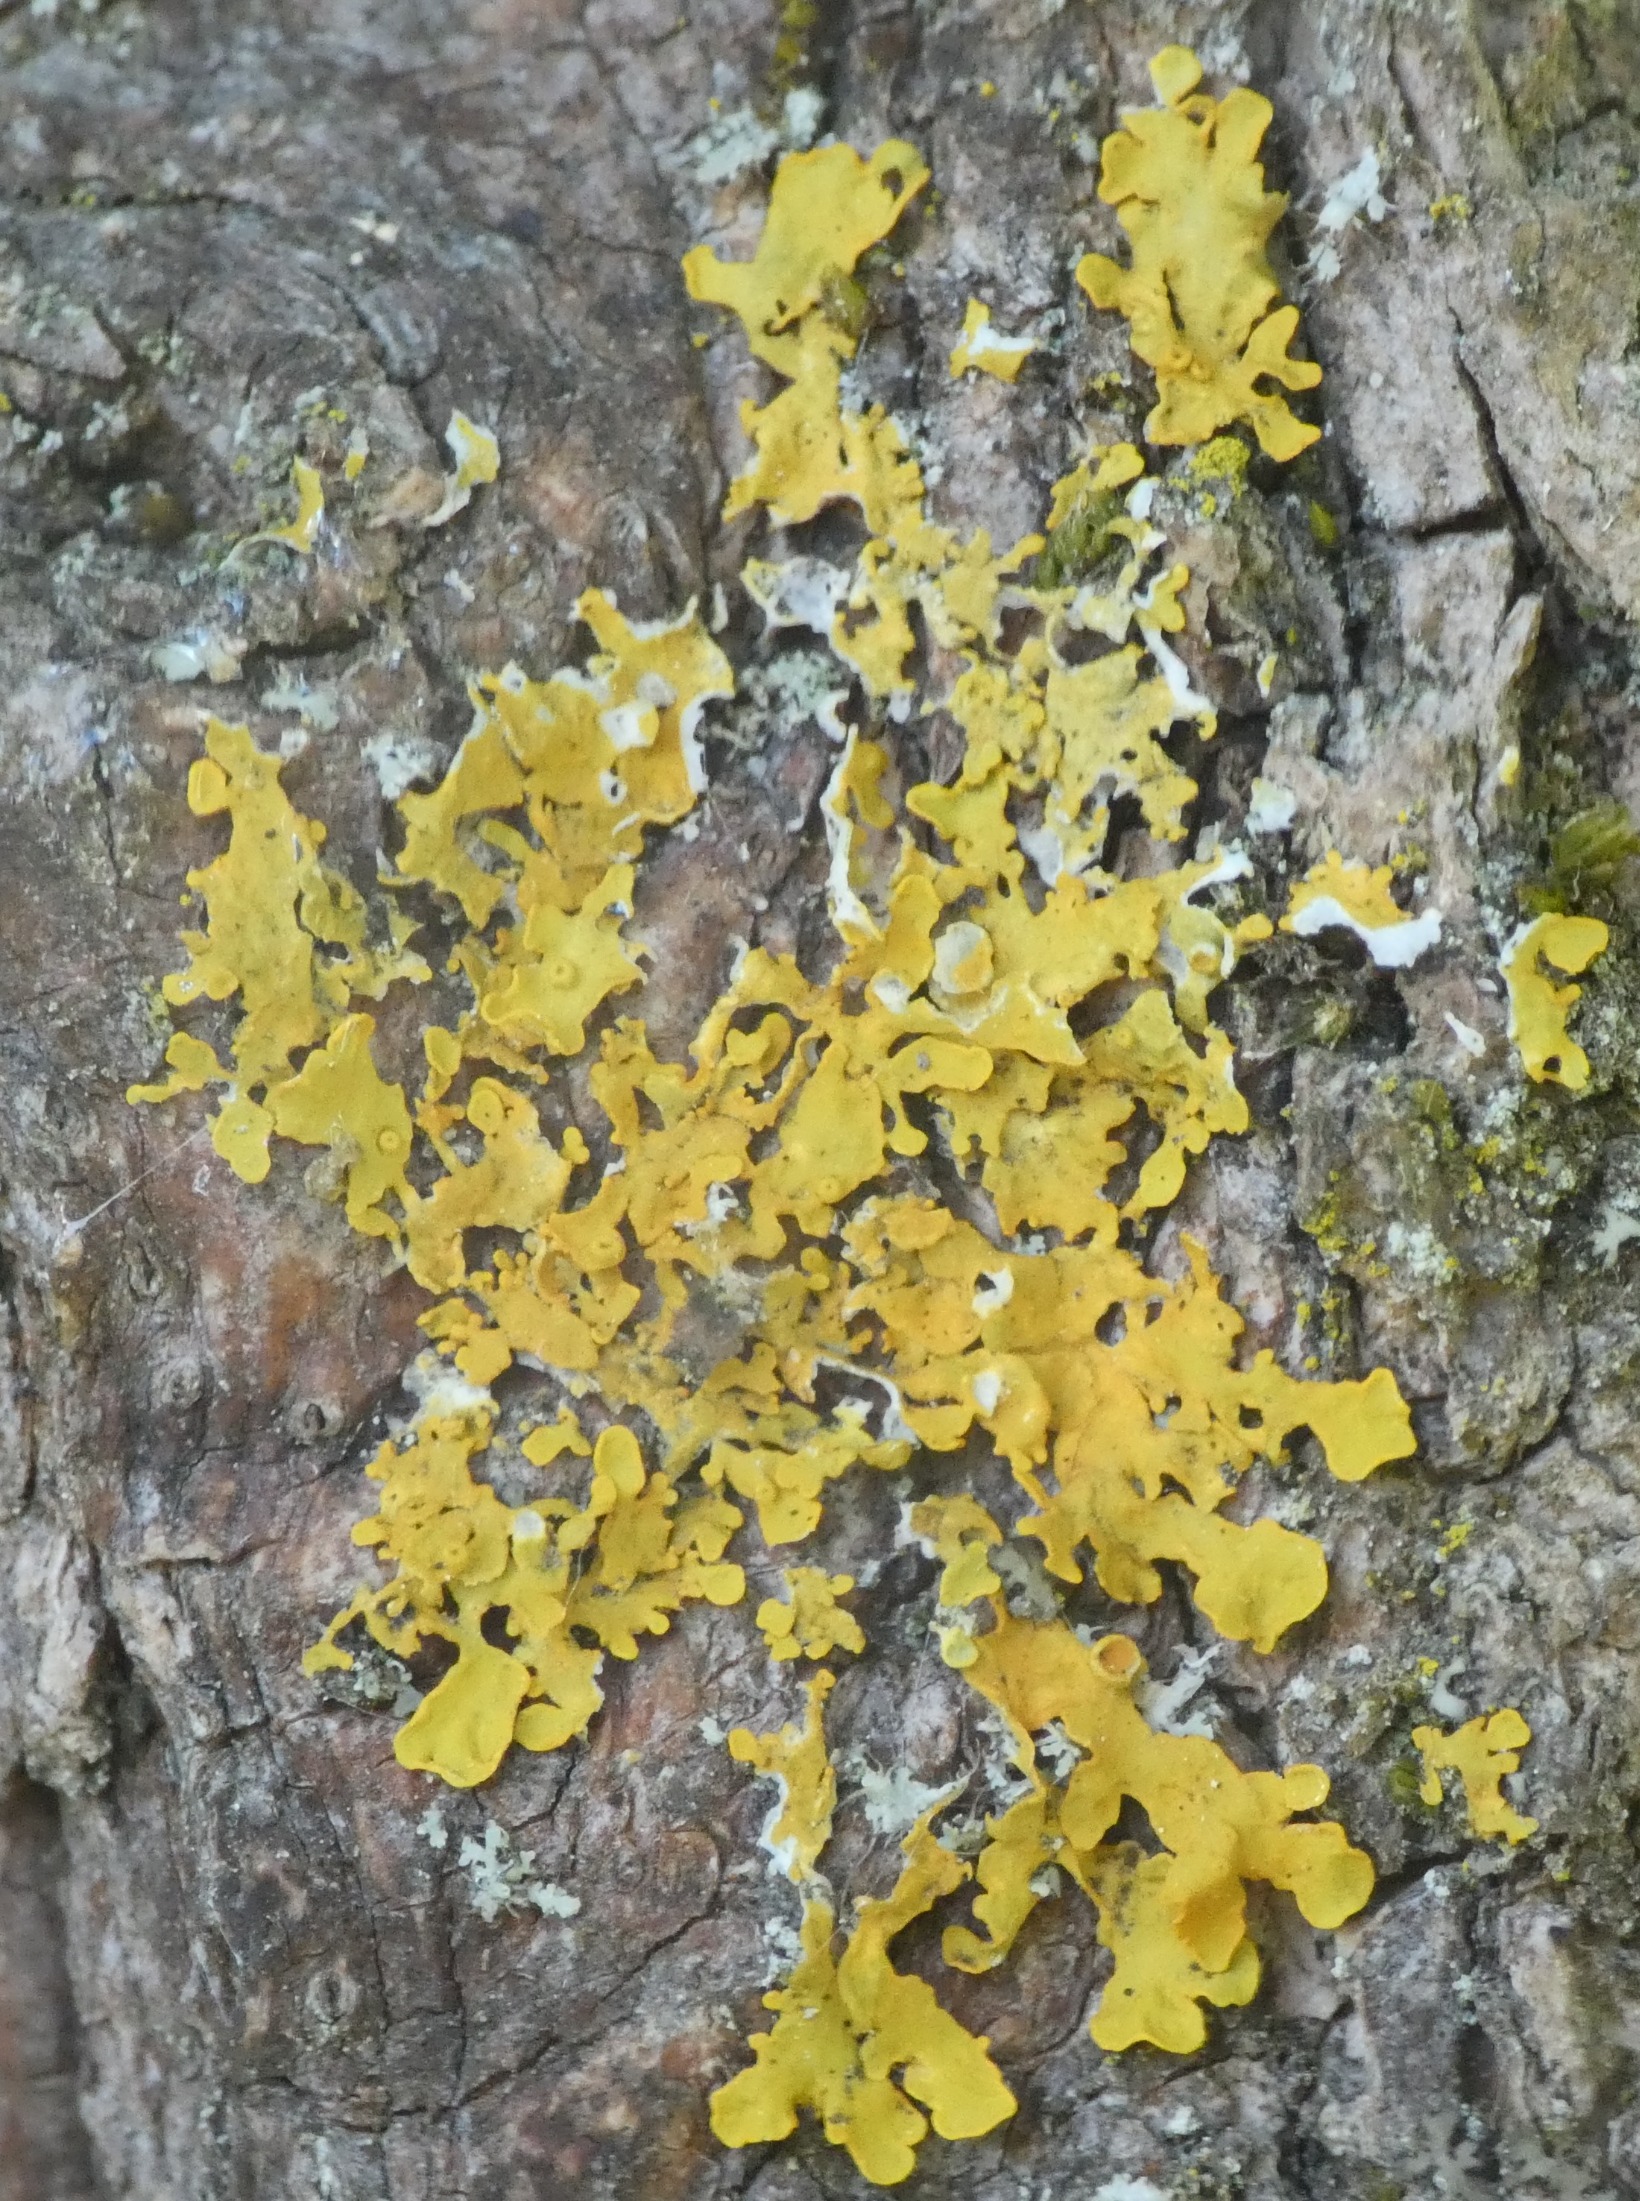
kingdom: Fungi
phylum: Ascomycota
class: Lecanoromycetes
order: Teloschistales
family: Teloschistaceae
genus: Xanthoria
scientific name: Xanthoria parietina
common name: Almindelig væggelav
